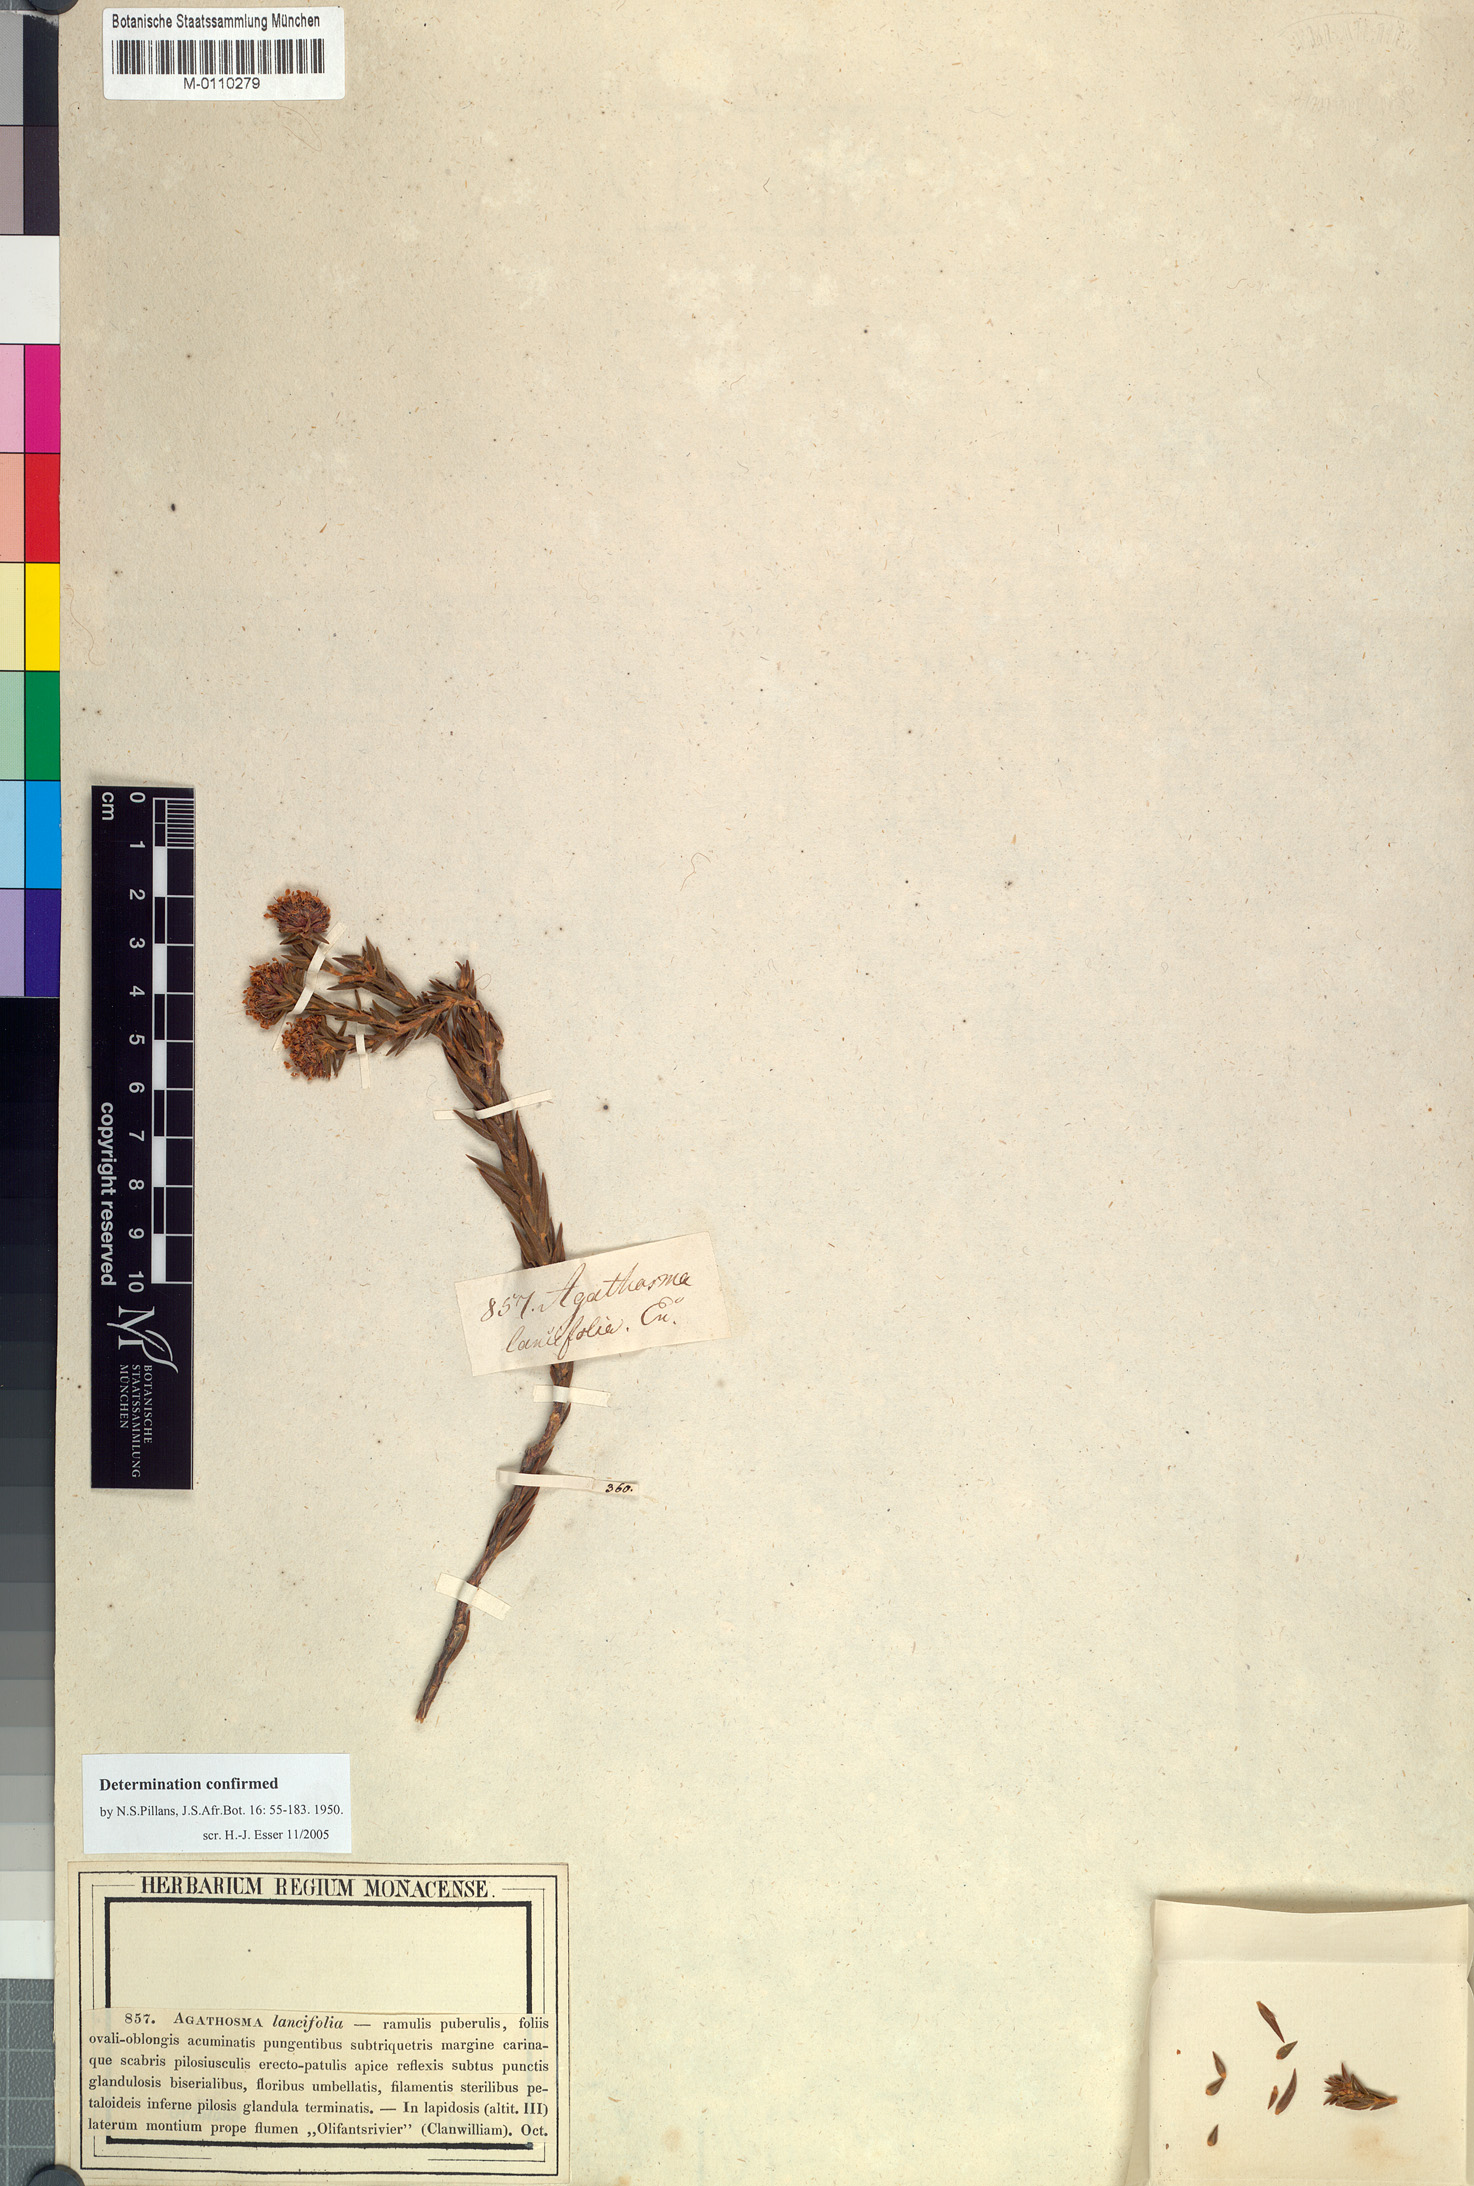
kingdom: Plantae
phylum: Tracheophyta
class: Magnoliopsida
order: Sapindales
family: Rutaceae
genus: Agathosma
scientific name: Agathosma lancifolia
